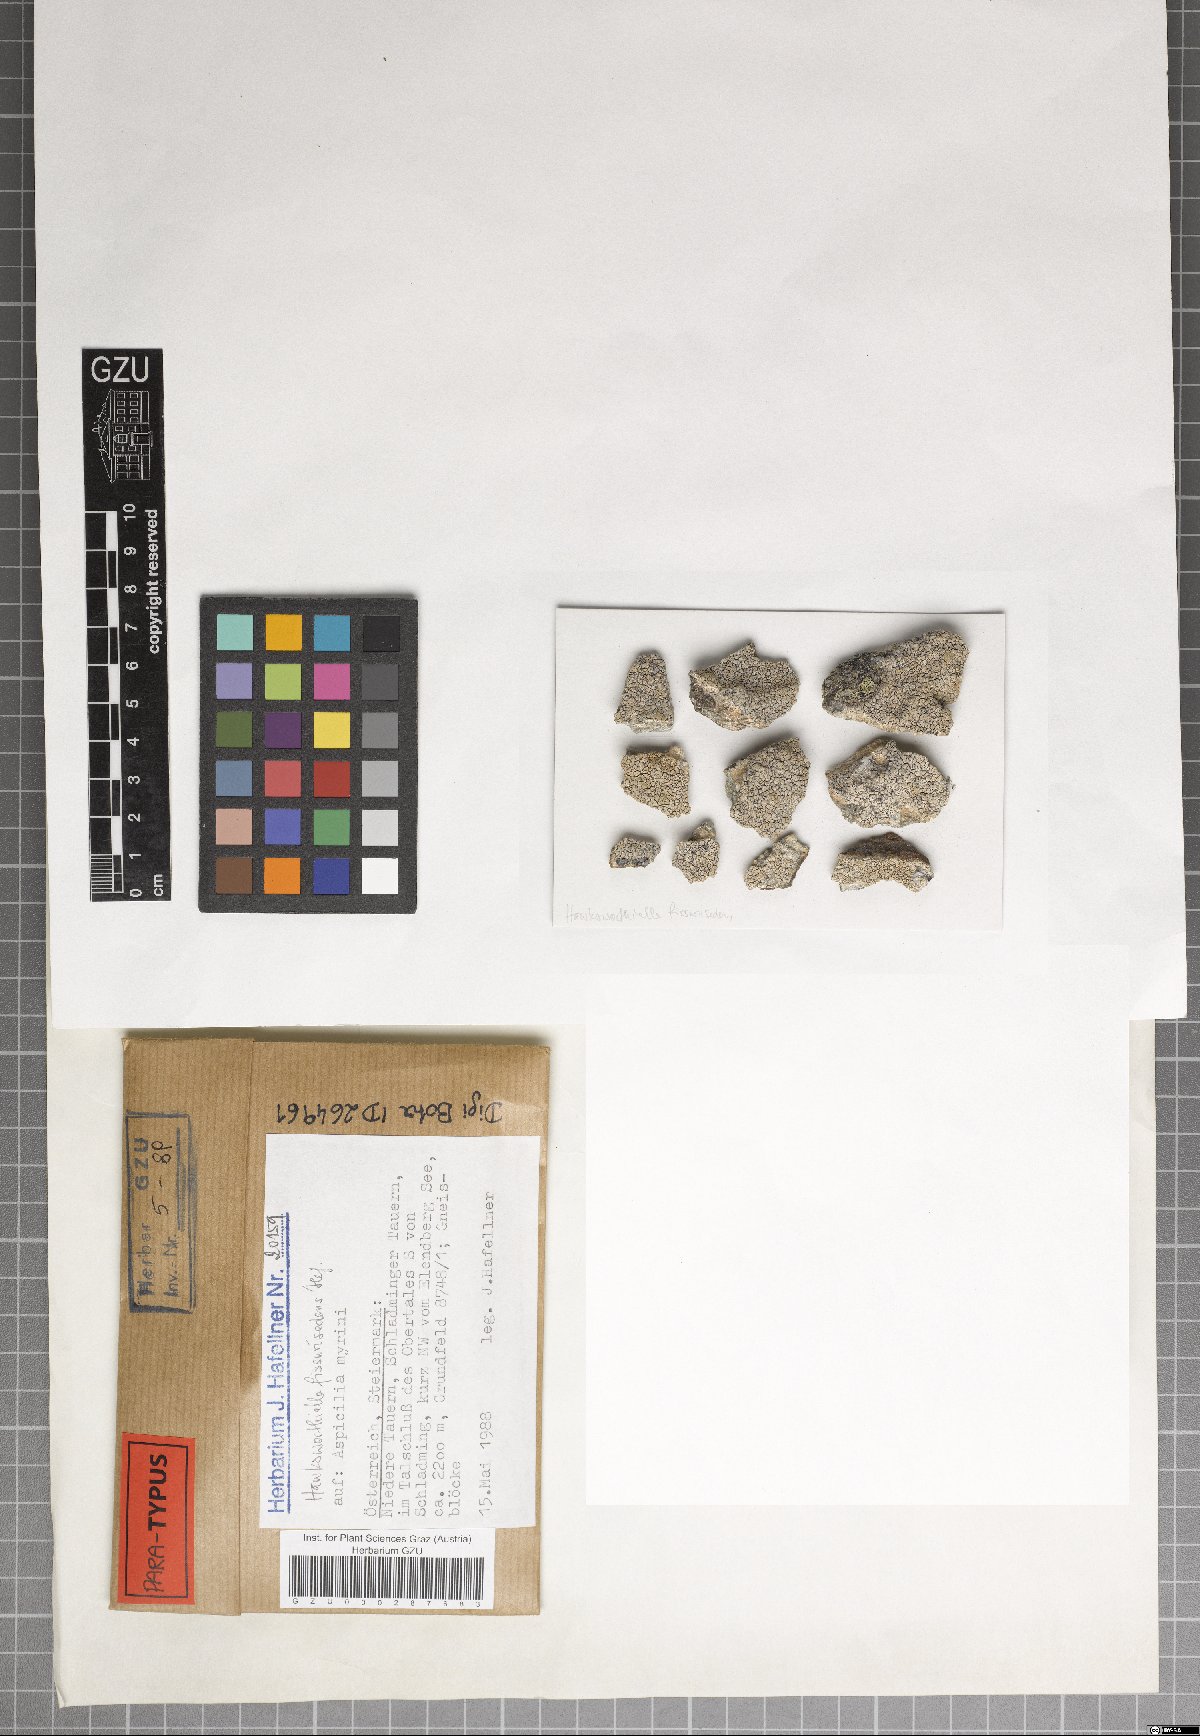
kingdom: Fungi
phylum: Ascomycota
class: Eurotiomycetes
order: Verrucariales
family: Adelococcaceae
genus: Sagediopsis
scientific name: Sagediopsis fissurisedens
